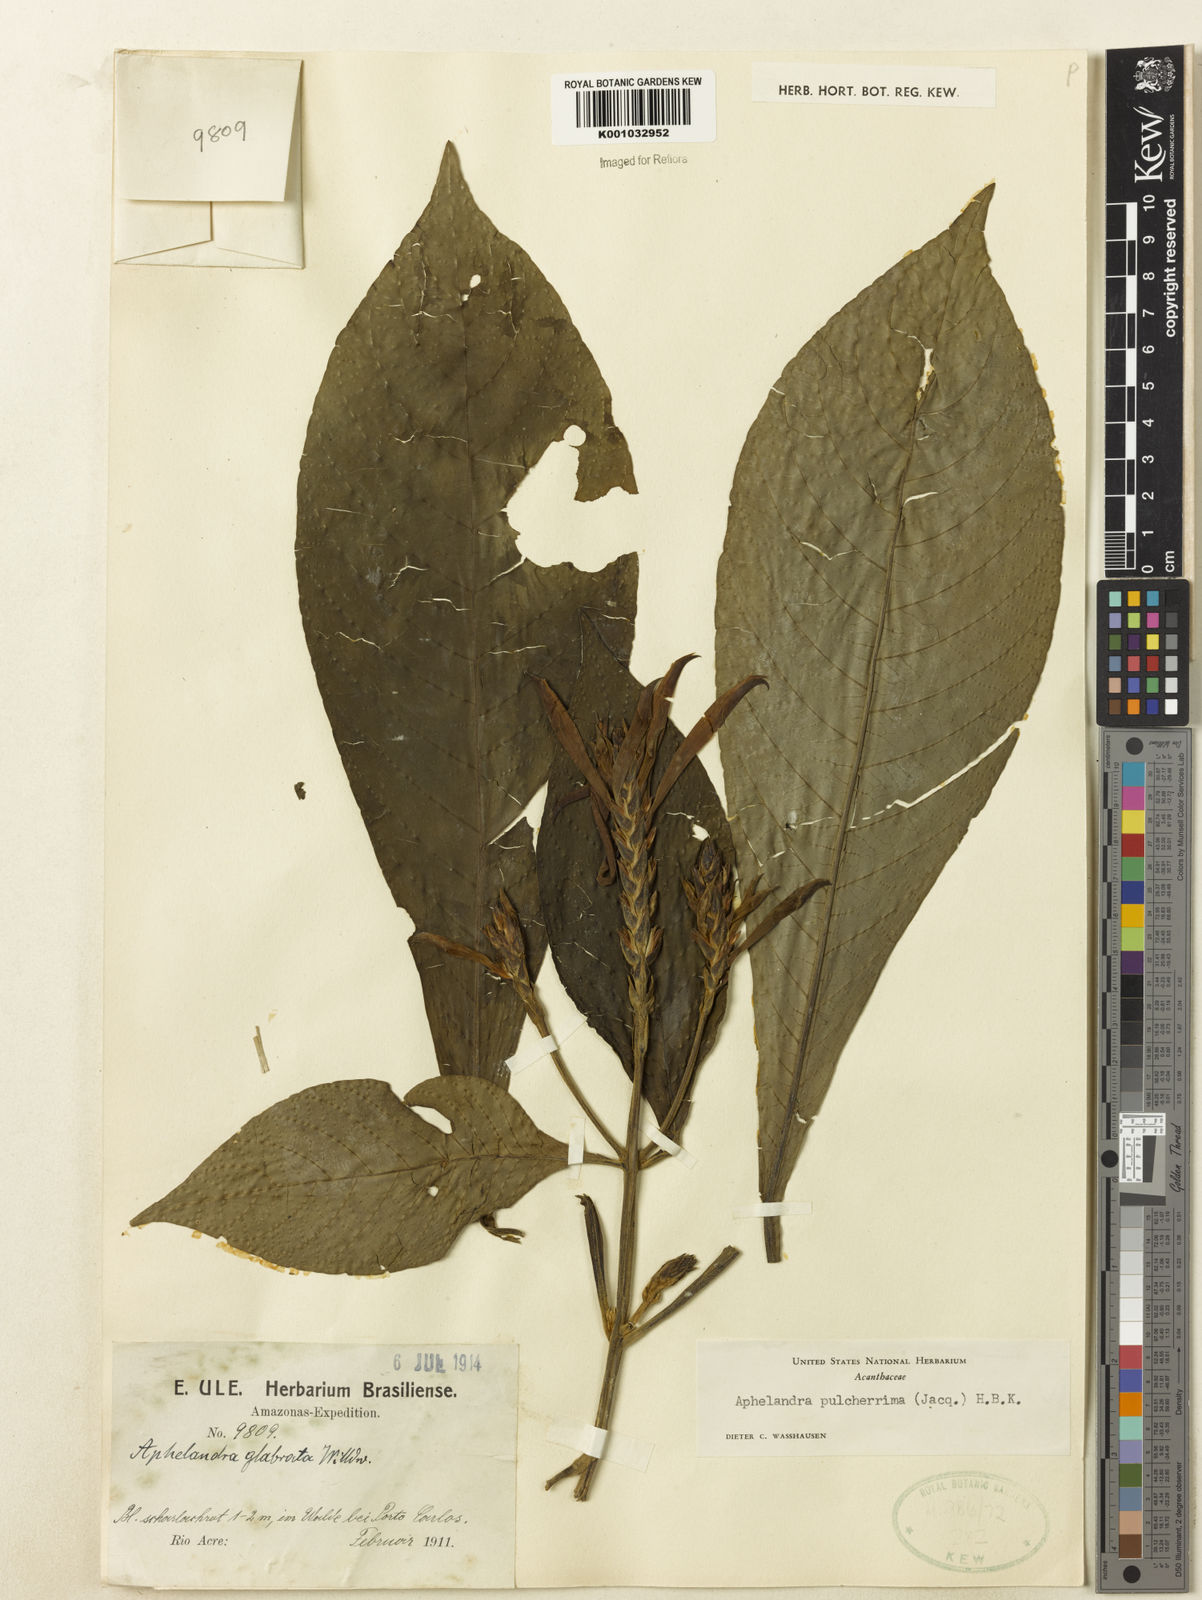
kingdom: Plantae
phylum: Tracheophyta
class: Magnoliopsida
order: Lamiales
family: Acanthaceae
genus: Aphelandra
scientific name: Aphelandra pulcherrima
